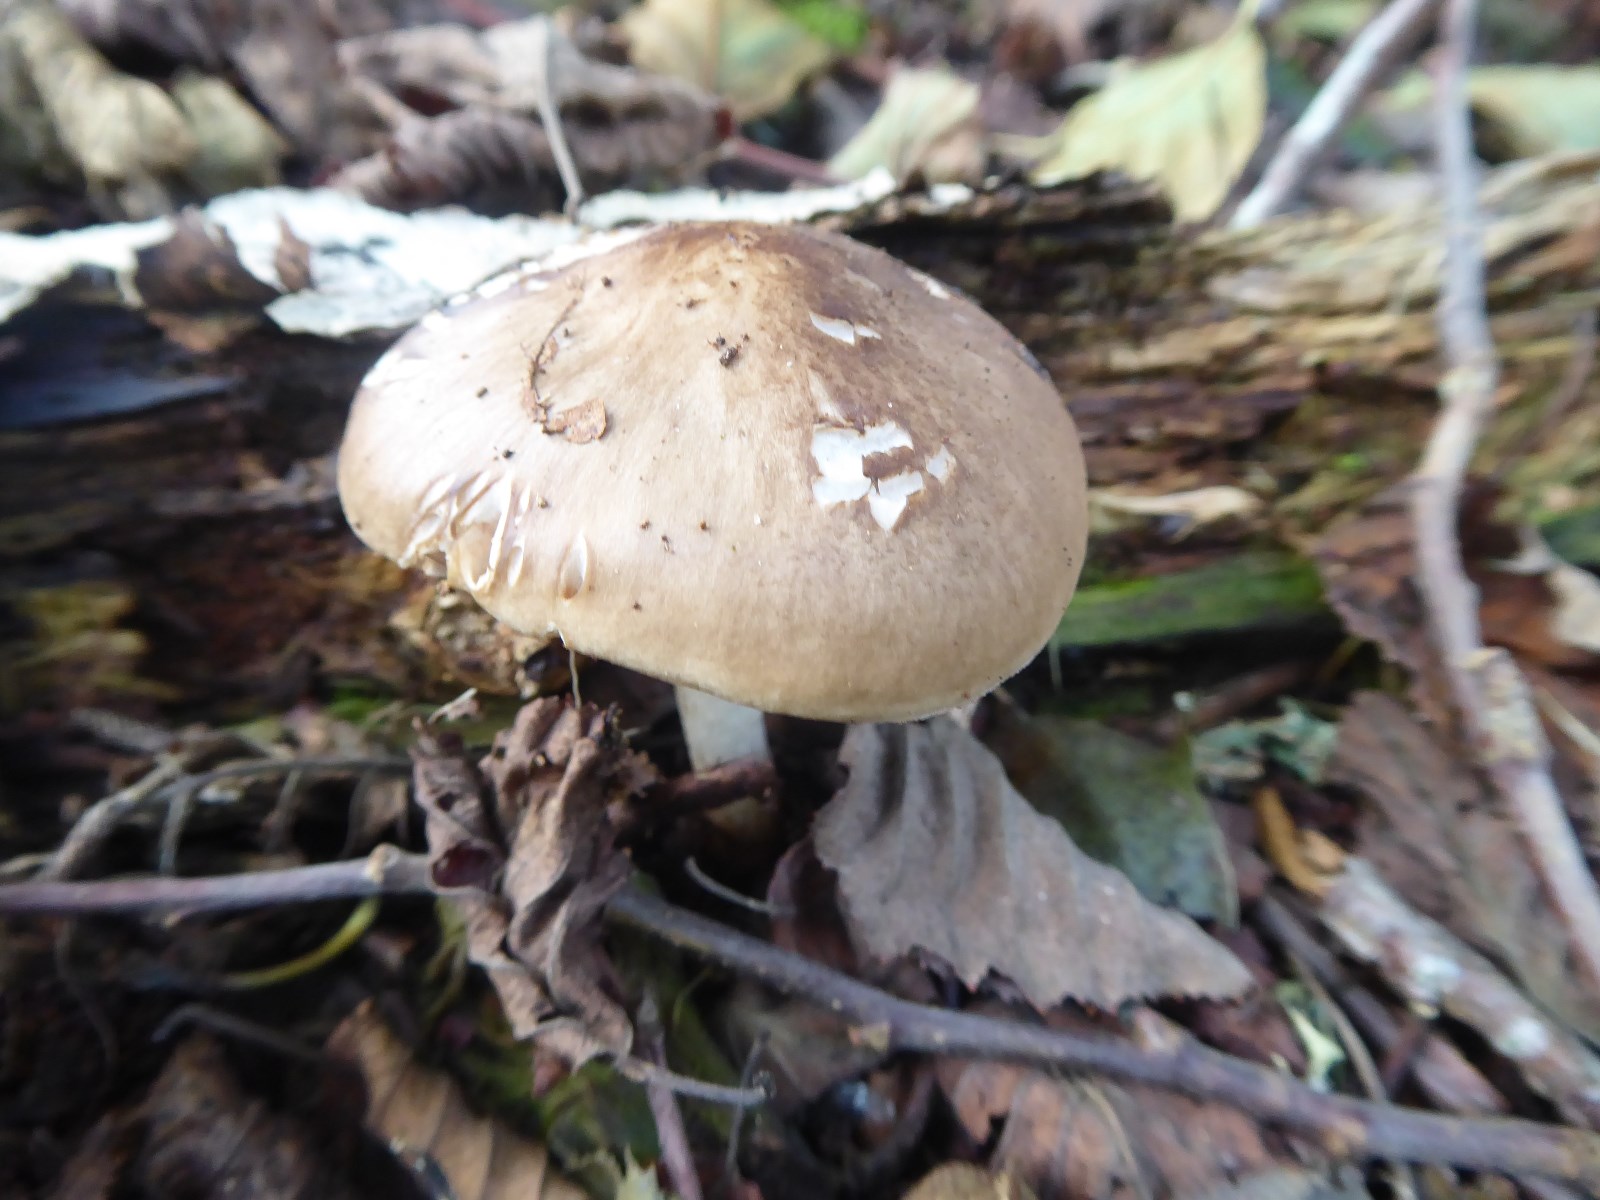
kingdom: Fungi
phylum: Basidiomycota
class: Agaricomycetes
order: Agaricales
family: Pluteaceae
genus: Pluteus
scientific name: Pluteus cervinus
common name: sodfarvet skærmhat
